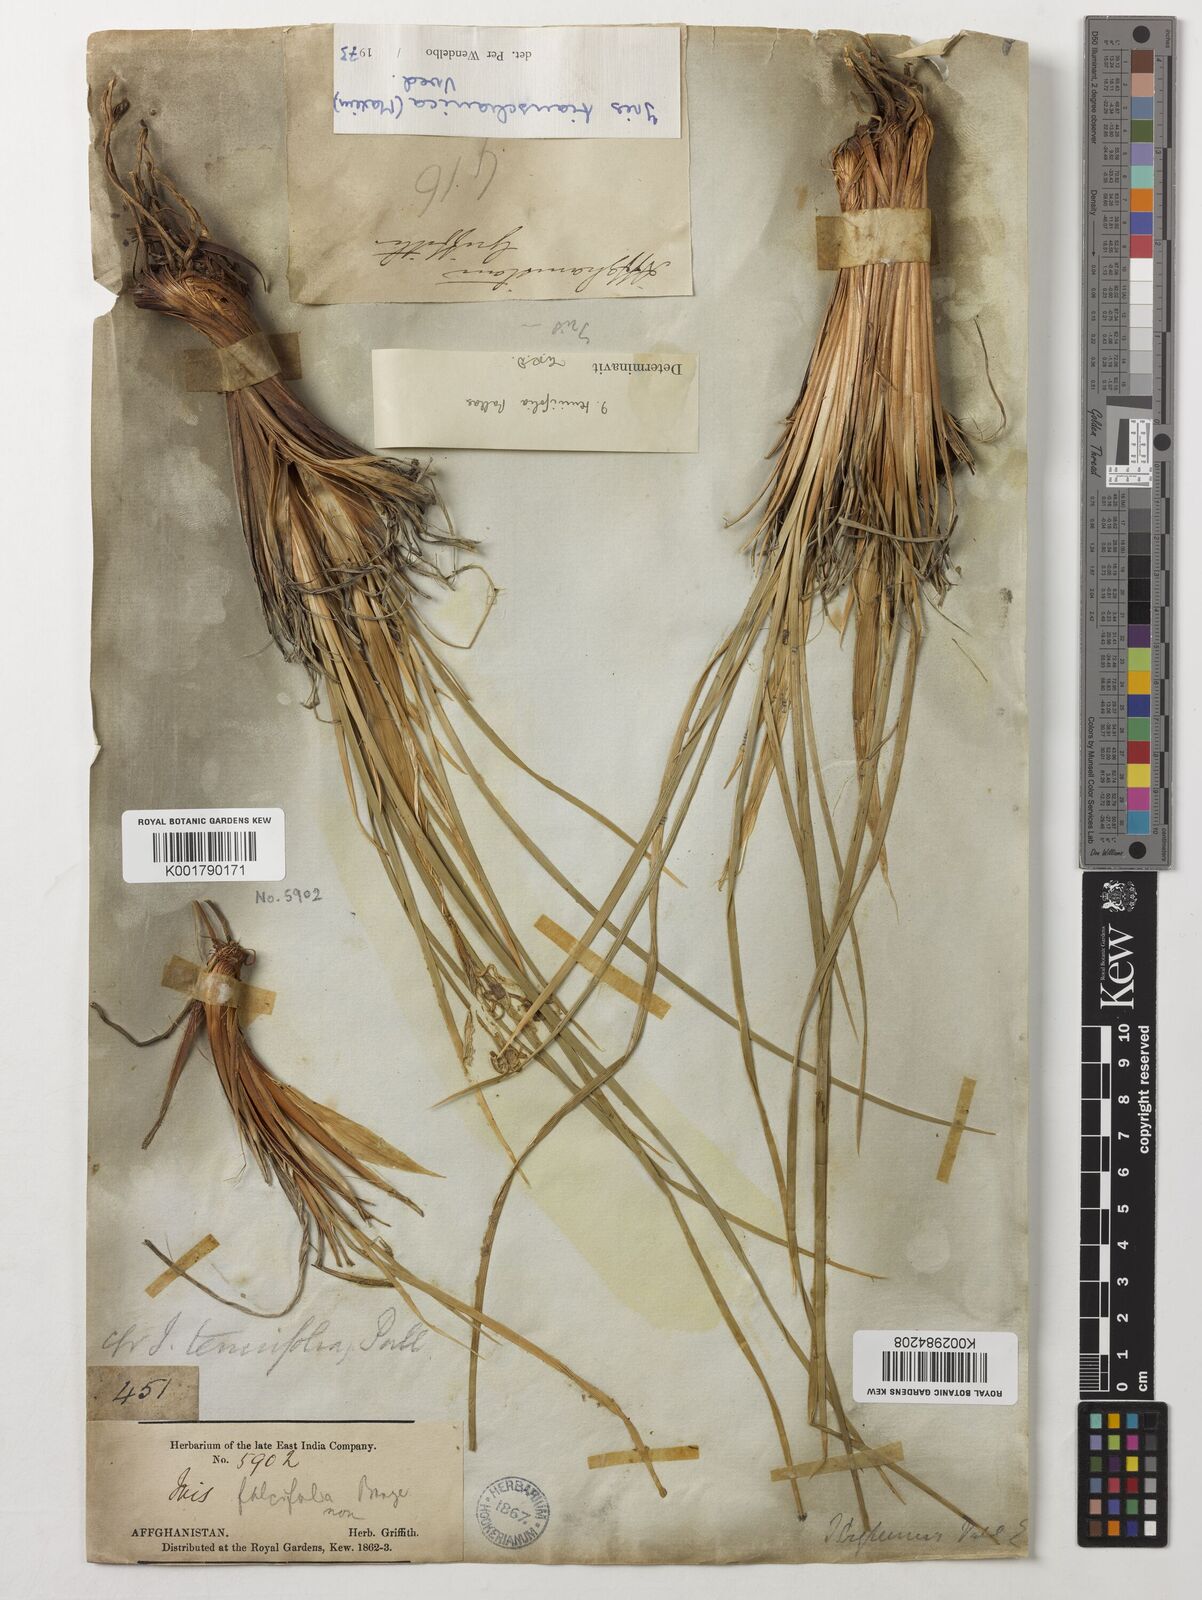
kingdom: Plantae
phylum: Tracheophyta
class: Liliopsida
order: Asparagales
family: Iridaceae
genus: Iris
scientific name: Iris longiscapa
